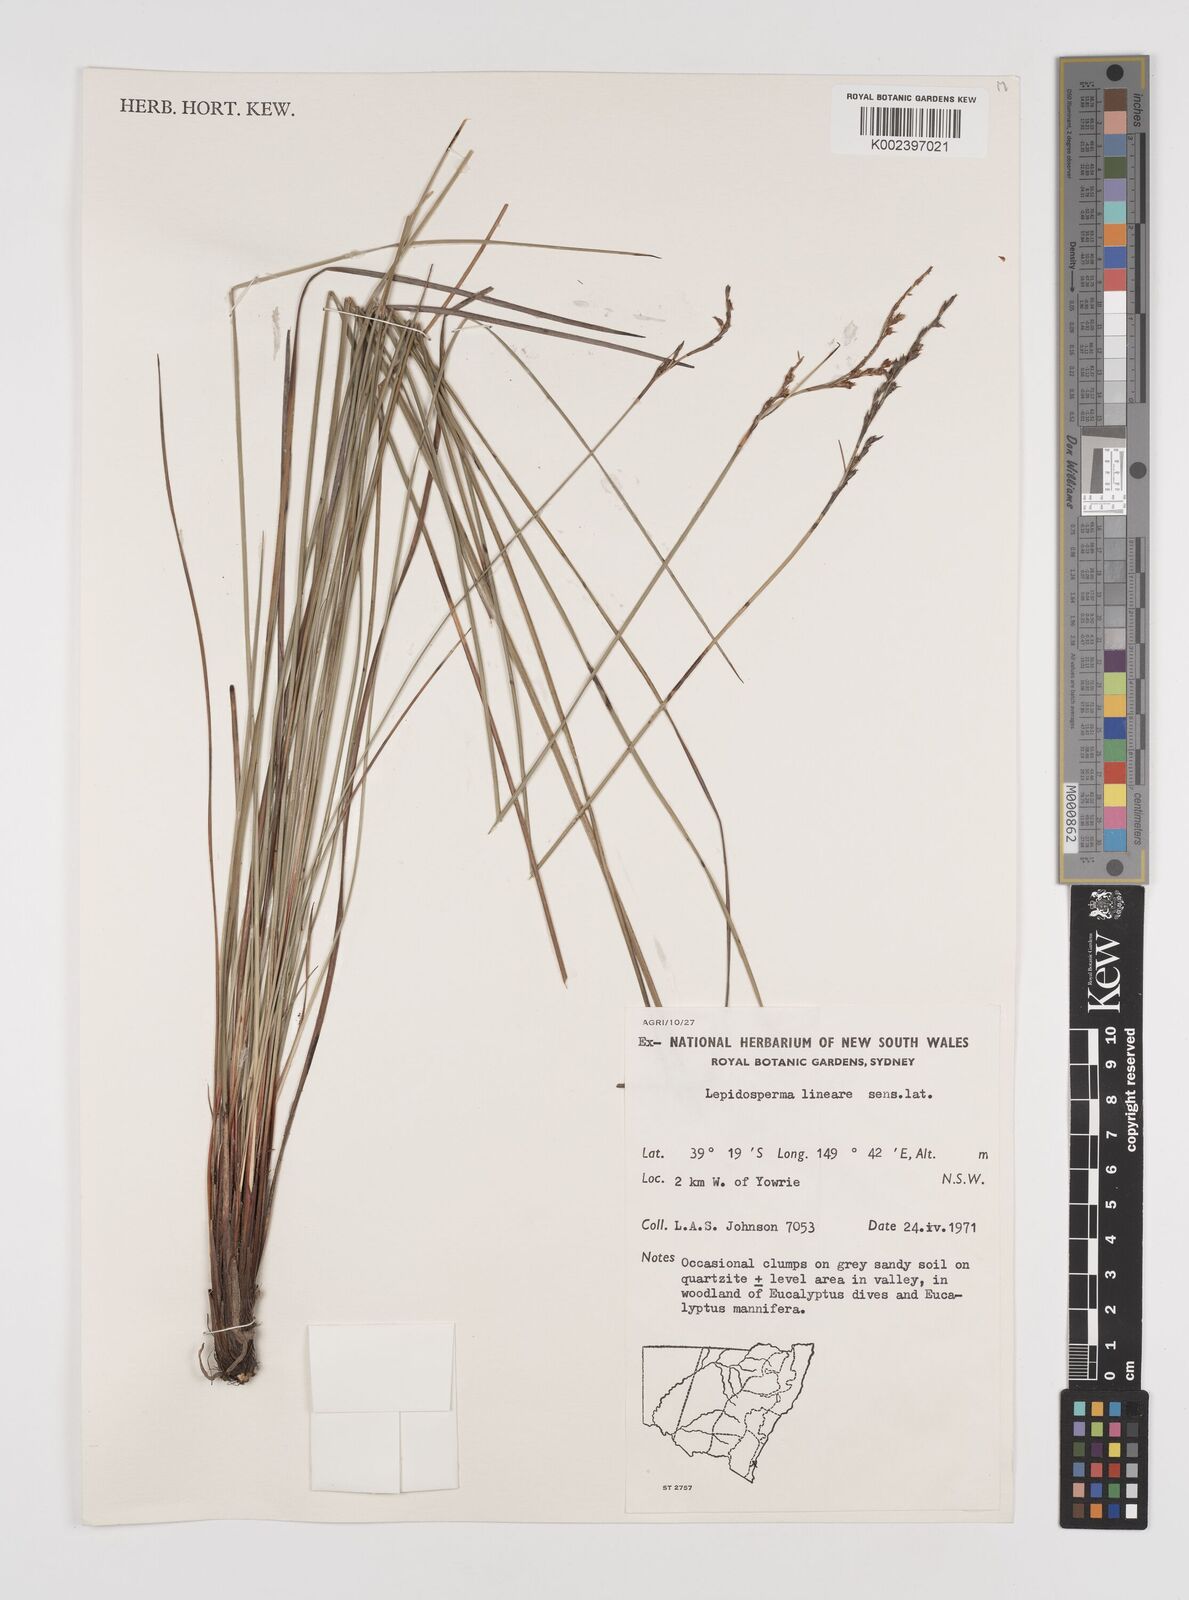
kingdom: Plantae
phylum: Tracheophyta
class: Liliopsida
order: Poales
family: Cyperaceae
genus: Lepidosperma
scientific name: Lepidosperma lineare
